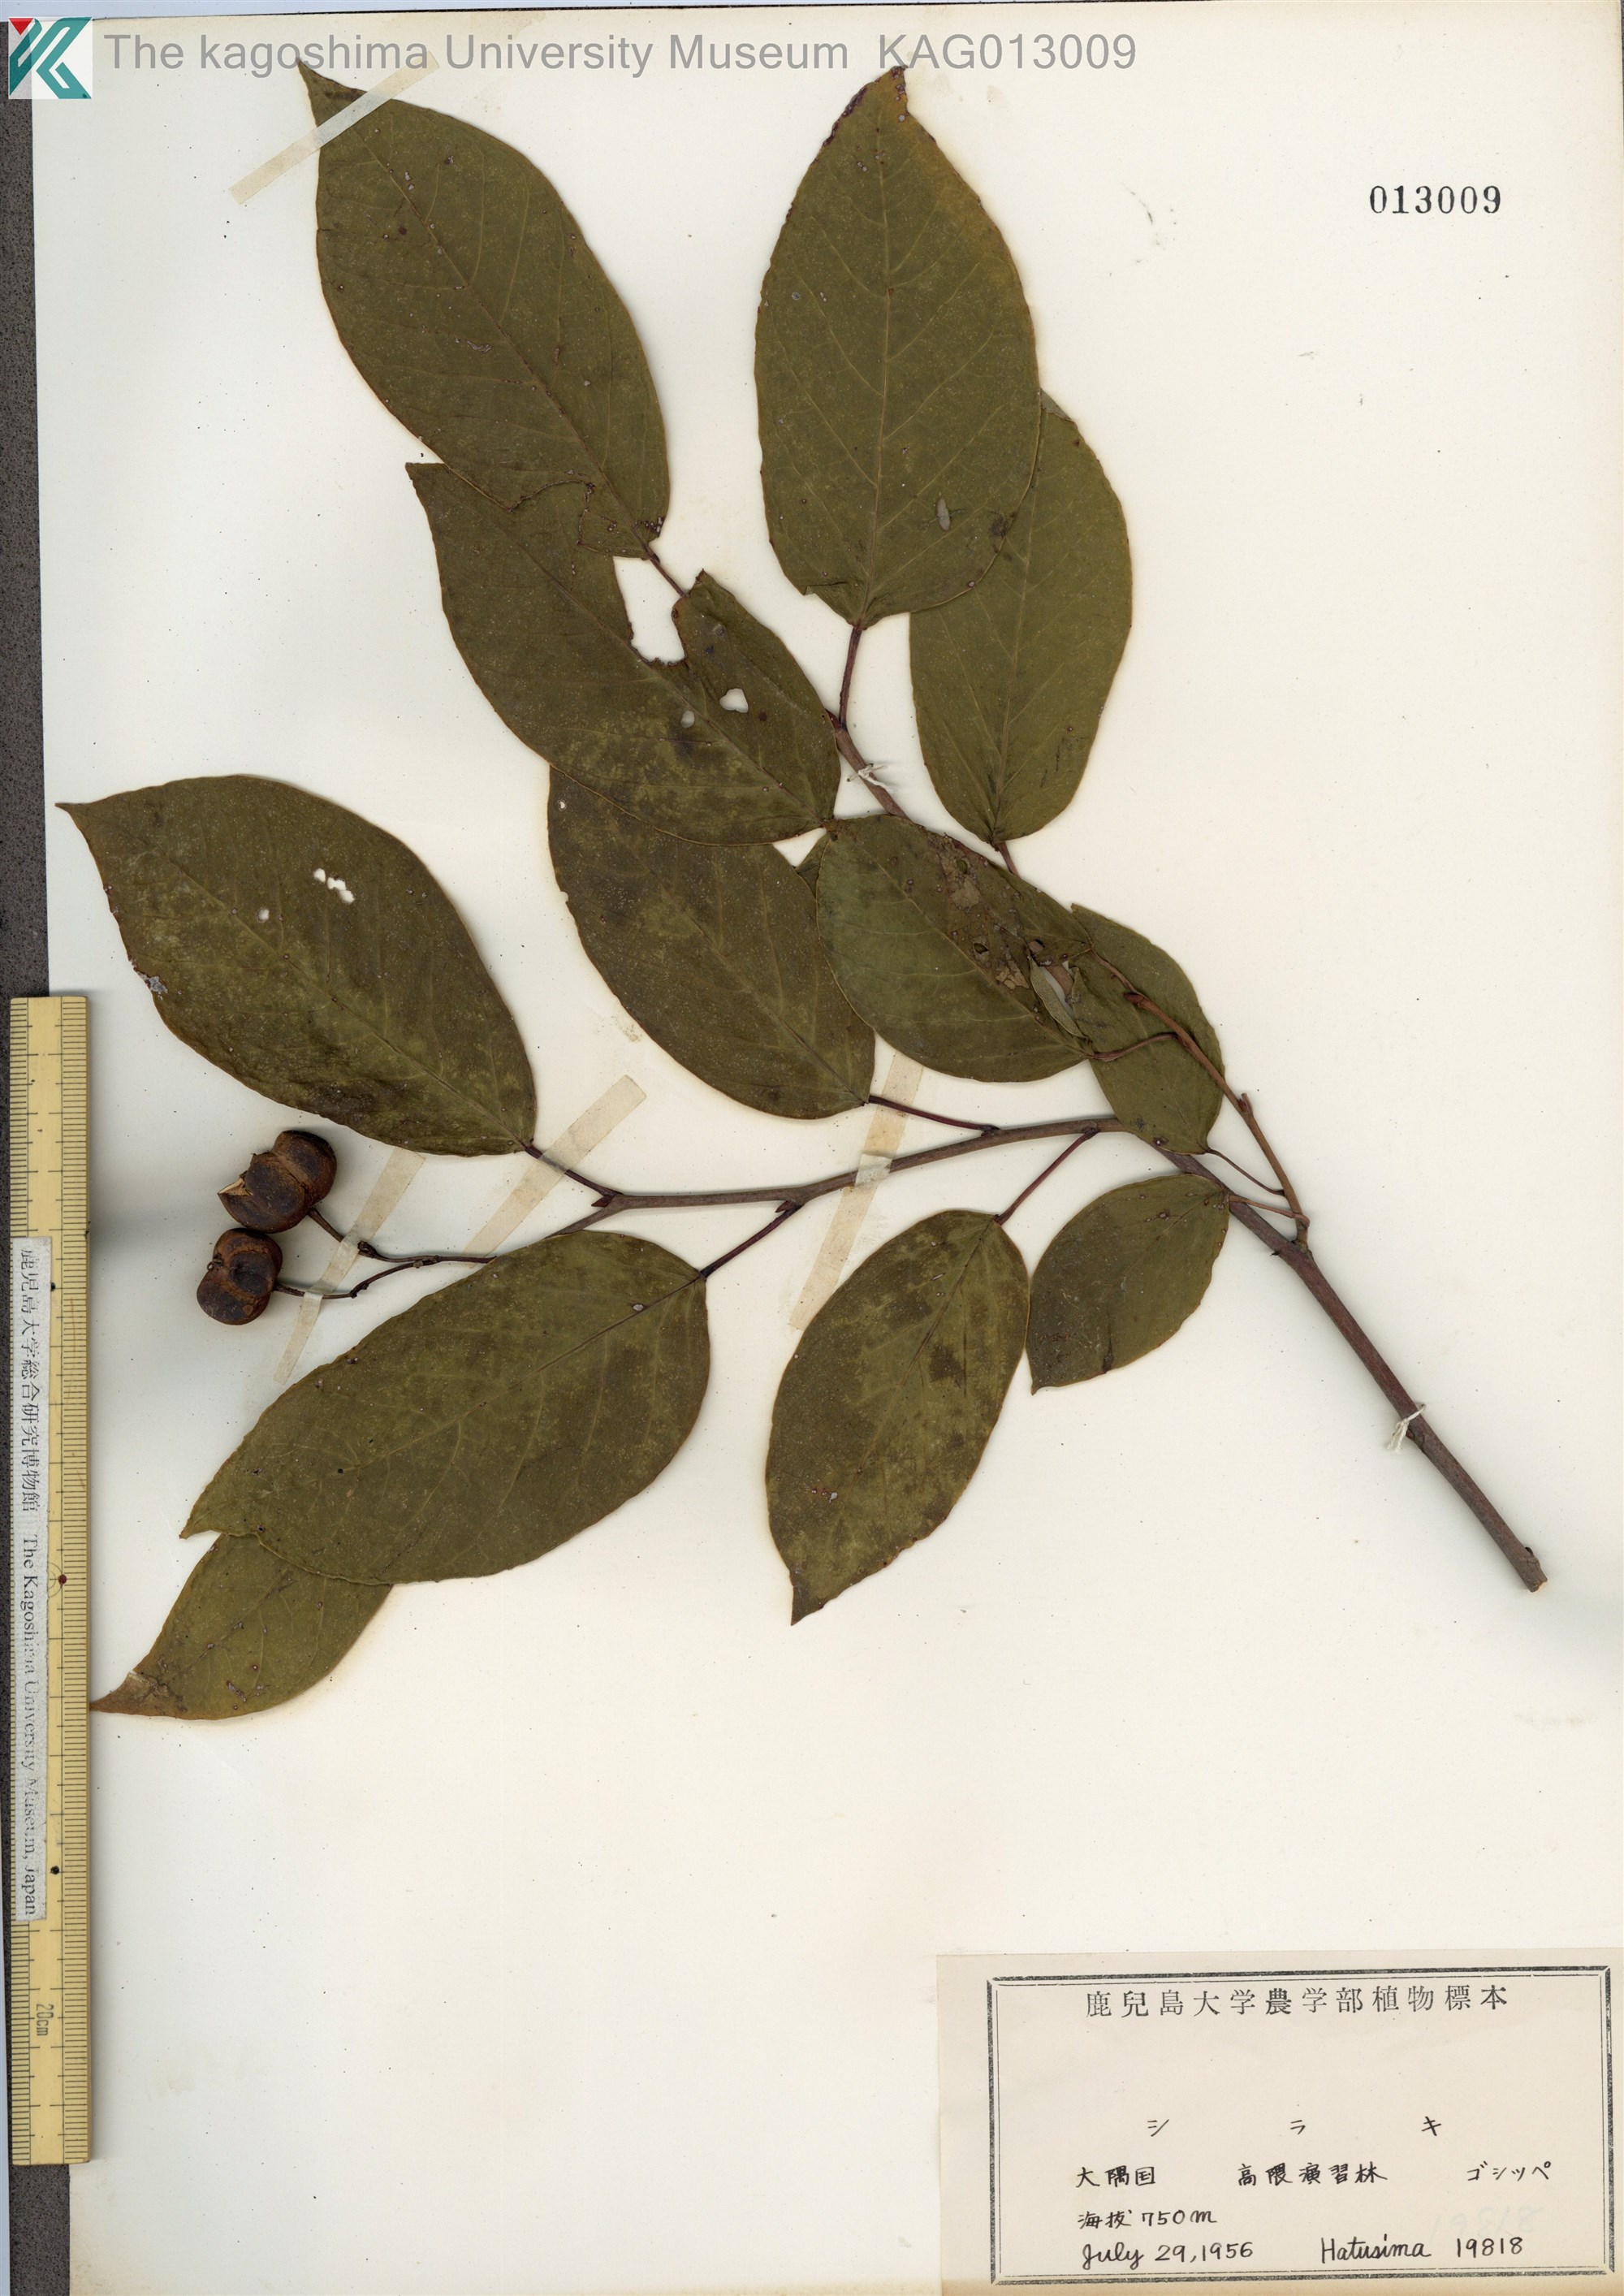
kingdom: Plantae
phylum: Tracheophyta
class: Magnoliopsida
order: Malpighiales
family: Euphorbiaceae
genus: Neoshirakia
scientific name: Neoshirakia japonica
